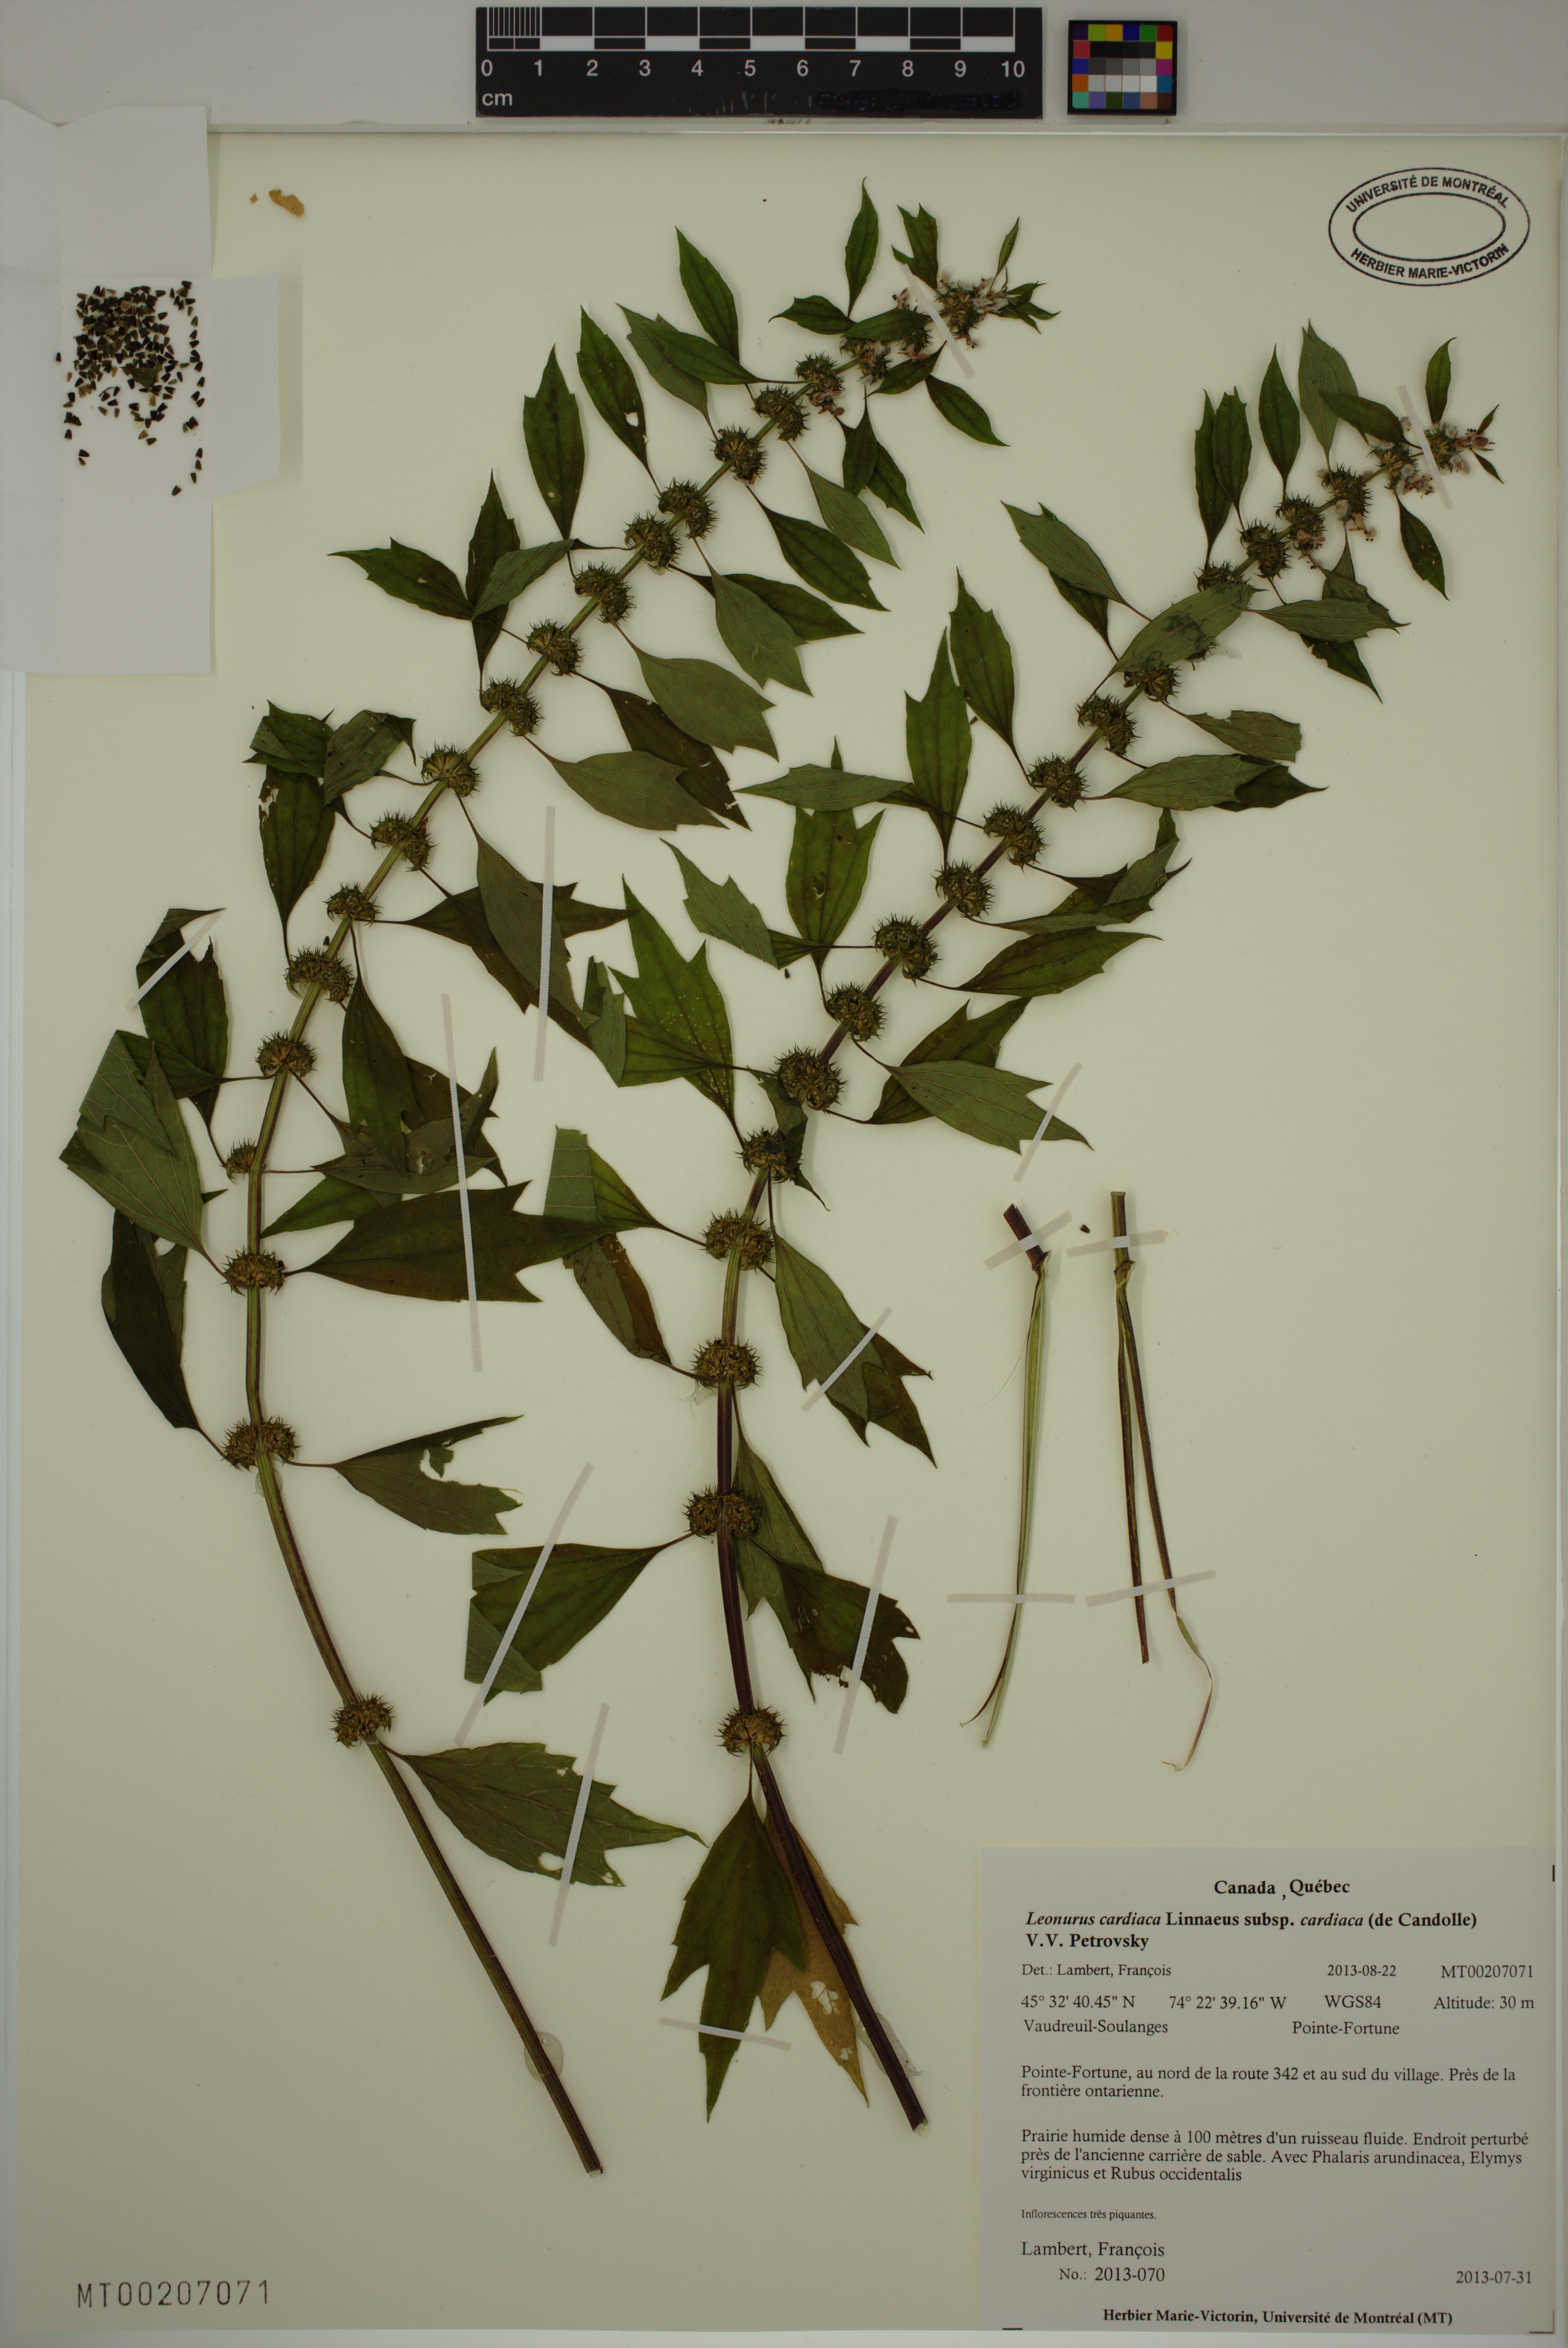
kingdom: Plantae
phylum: Tracheophyta
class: Magnoliopsida
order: Lamiales
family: Lamiaceae
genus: Leonurus
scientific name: Leonurus cardiaca
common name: Motherwort
